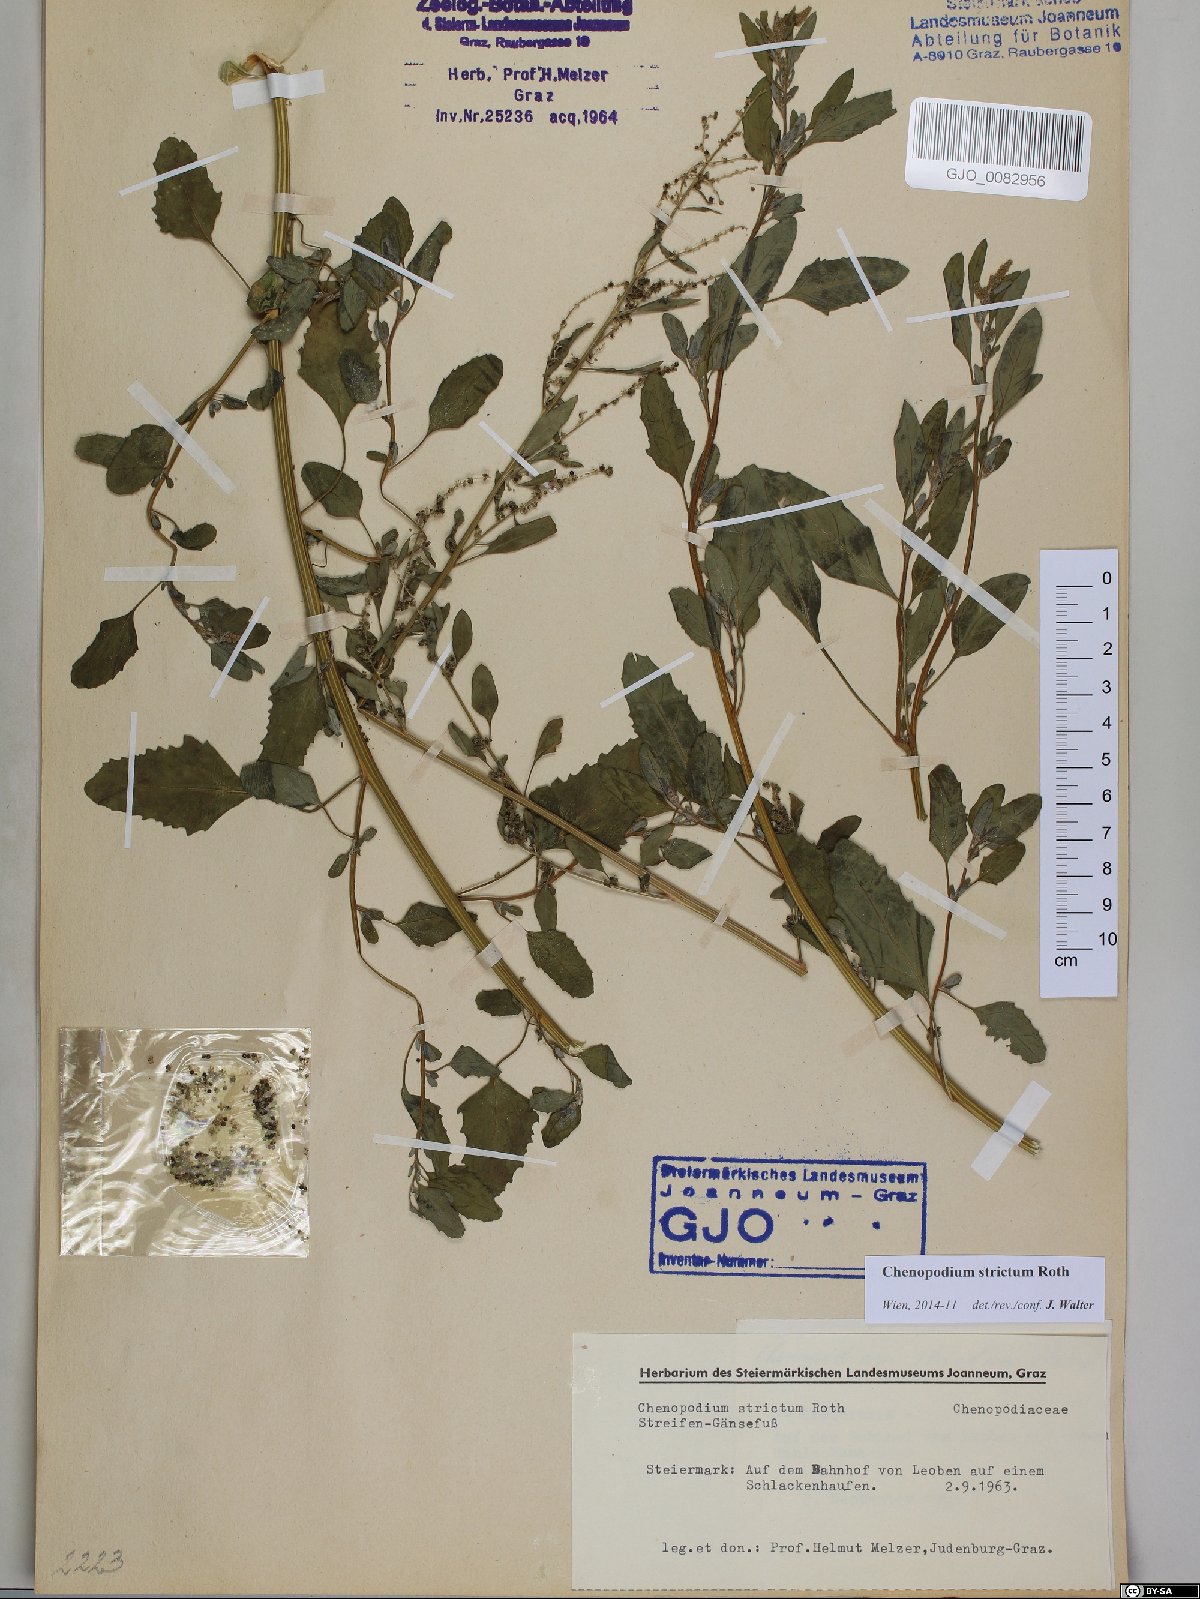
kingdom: Plantae
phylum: Tracheophyta
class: Magnoliopsida
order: Caryophyllales
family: Amaranthaceae
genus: Chenopodium
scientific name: Chenopodium album
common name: Fat-hen
